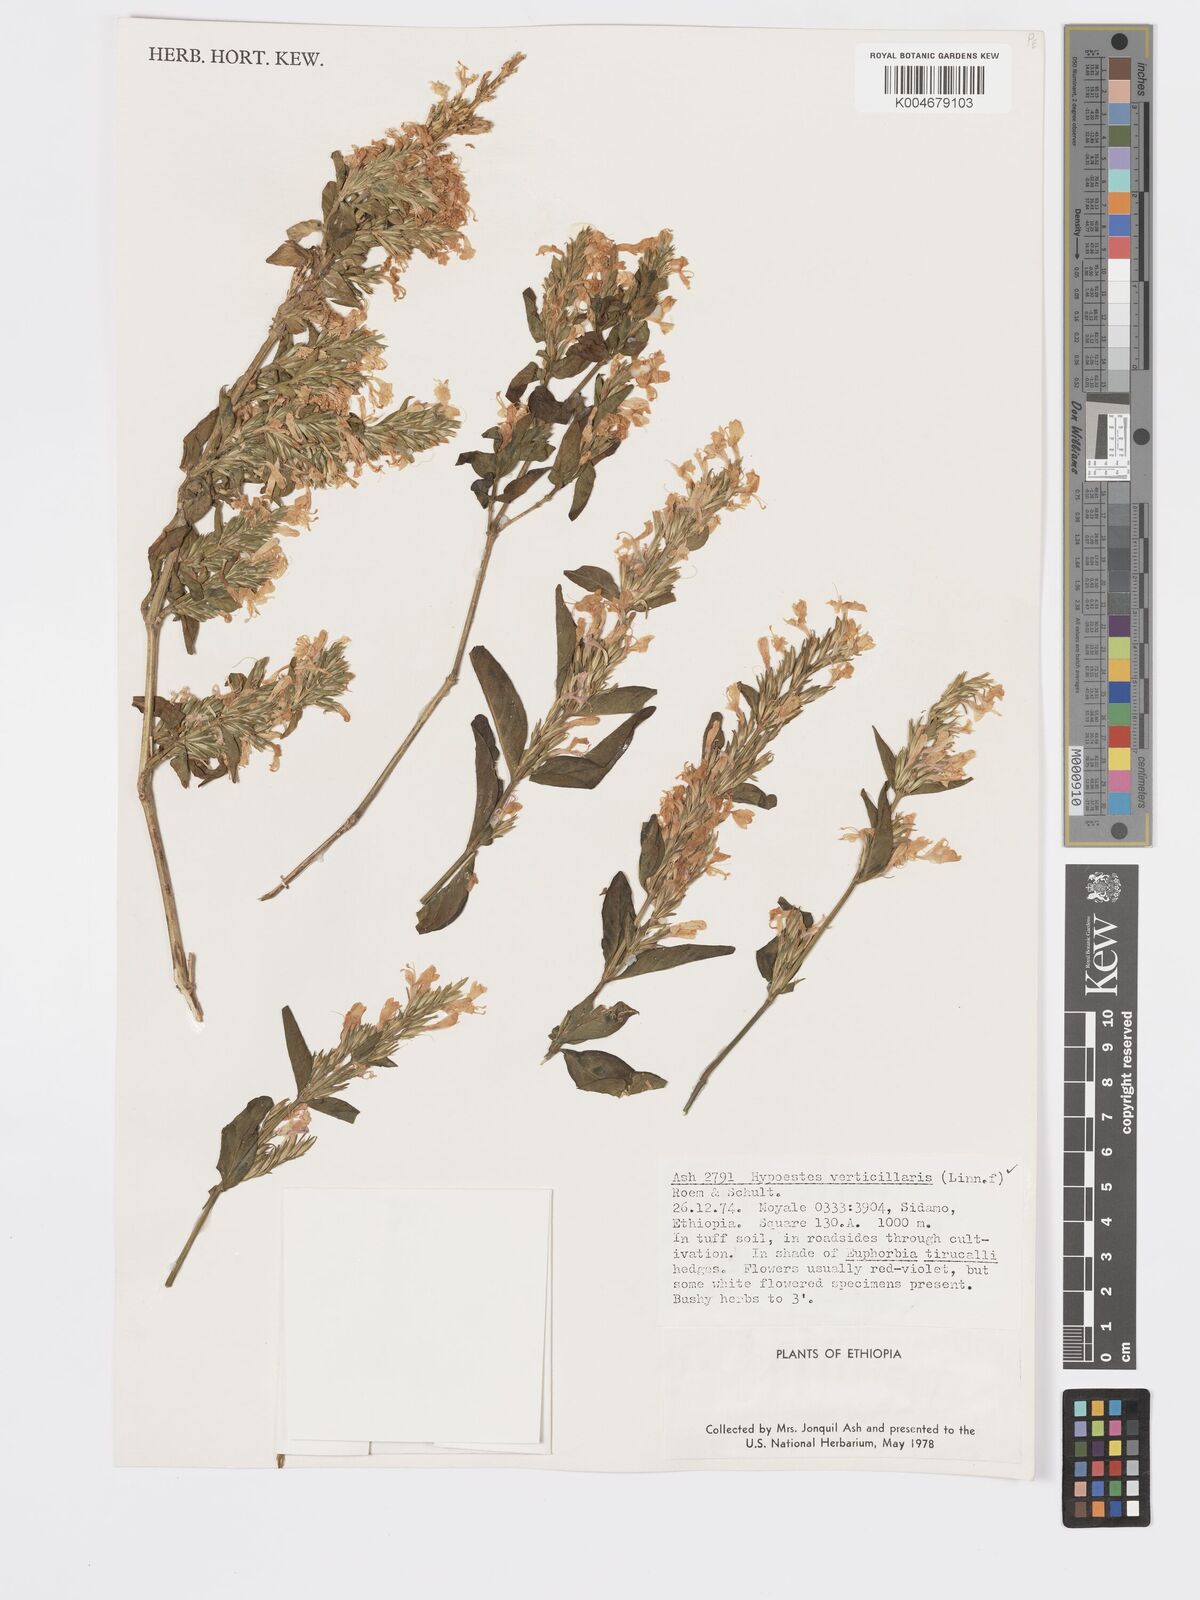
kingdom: Plantae
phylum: Tracheophyta
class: Magnoliopsida
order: Lamiales
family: Acanthaceae
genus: Hypoestes
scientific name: Hypoestes forskaolii
